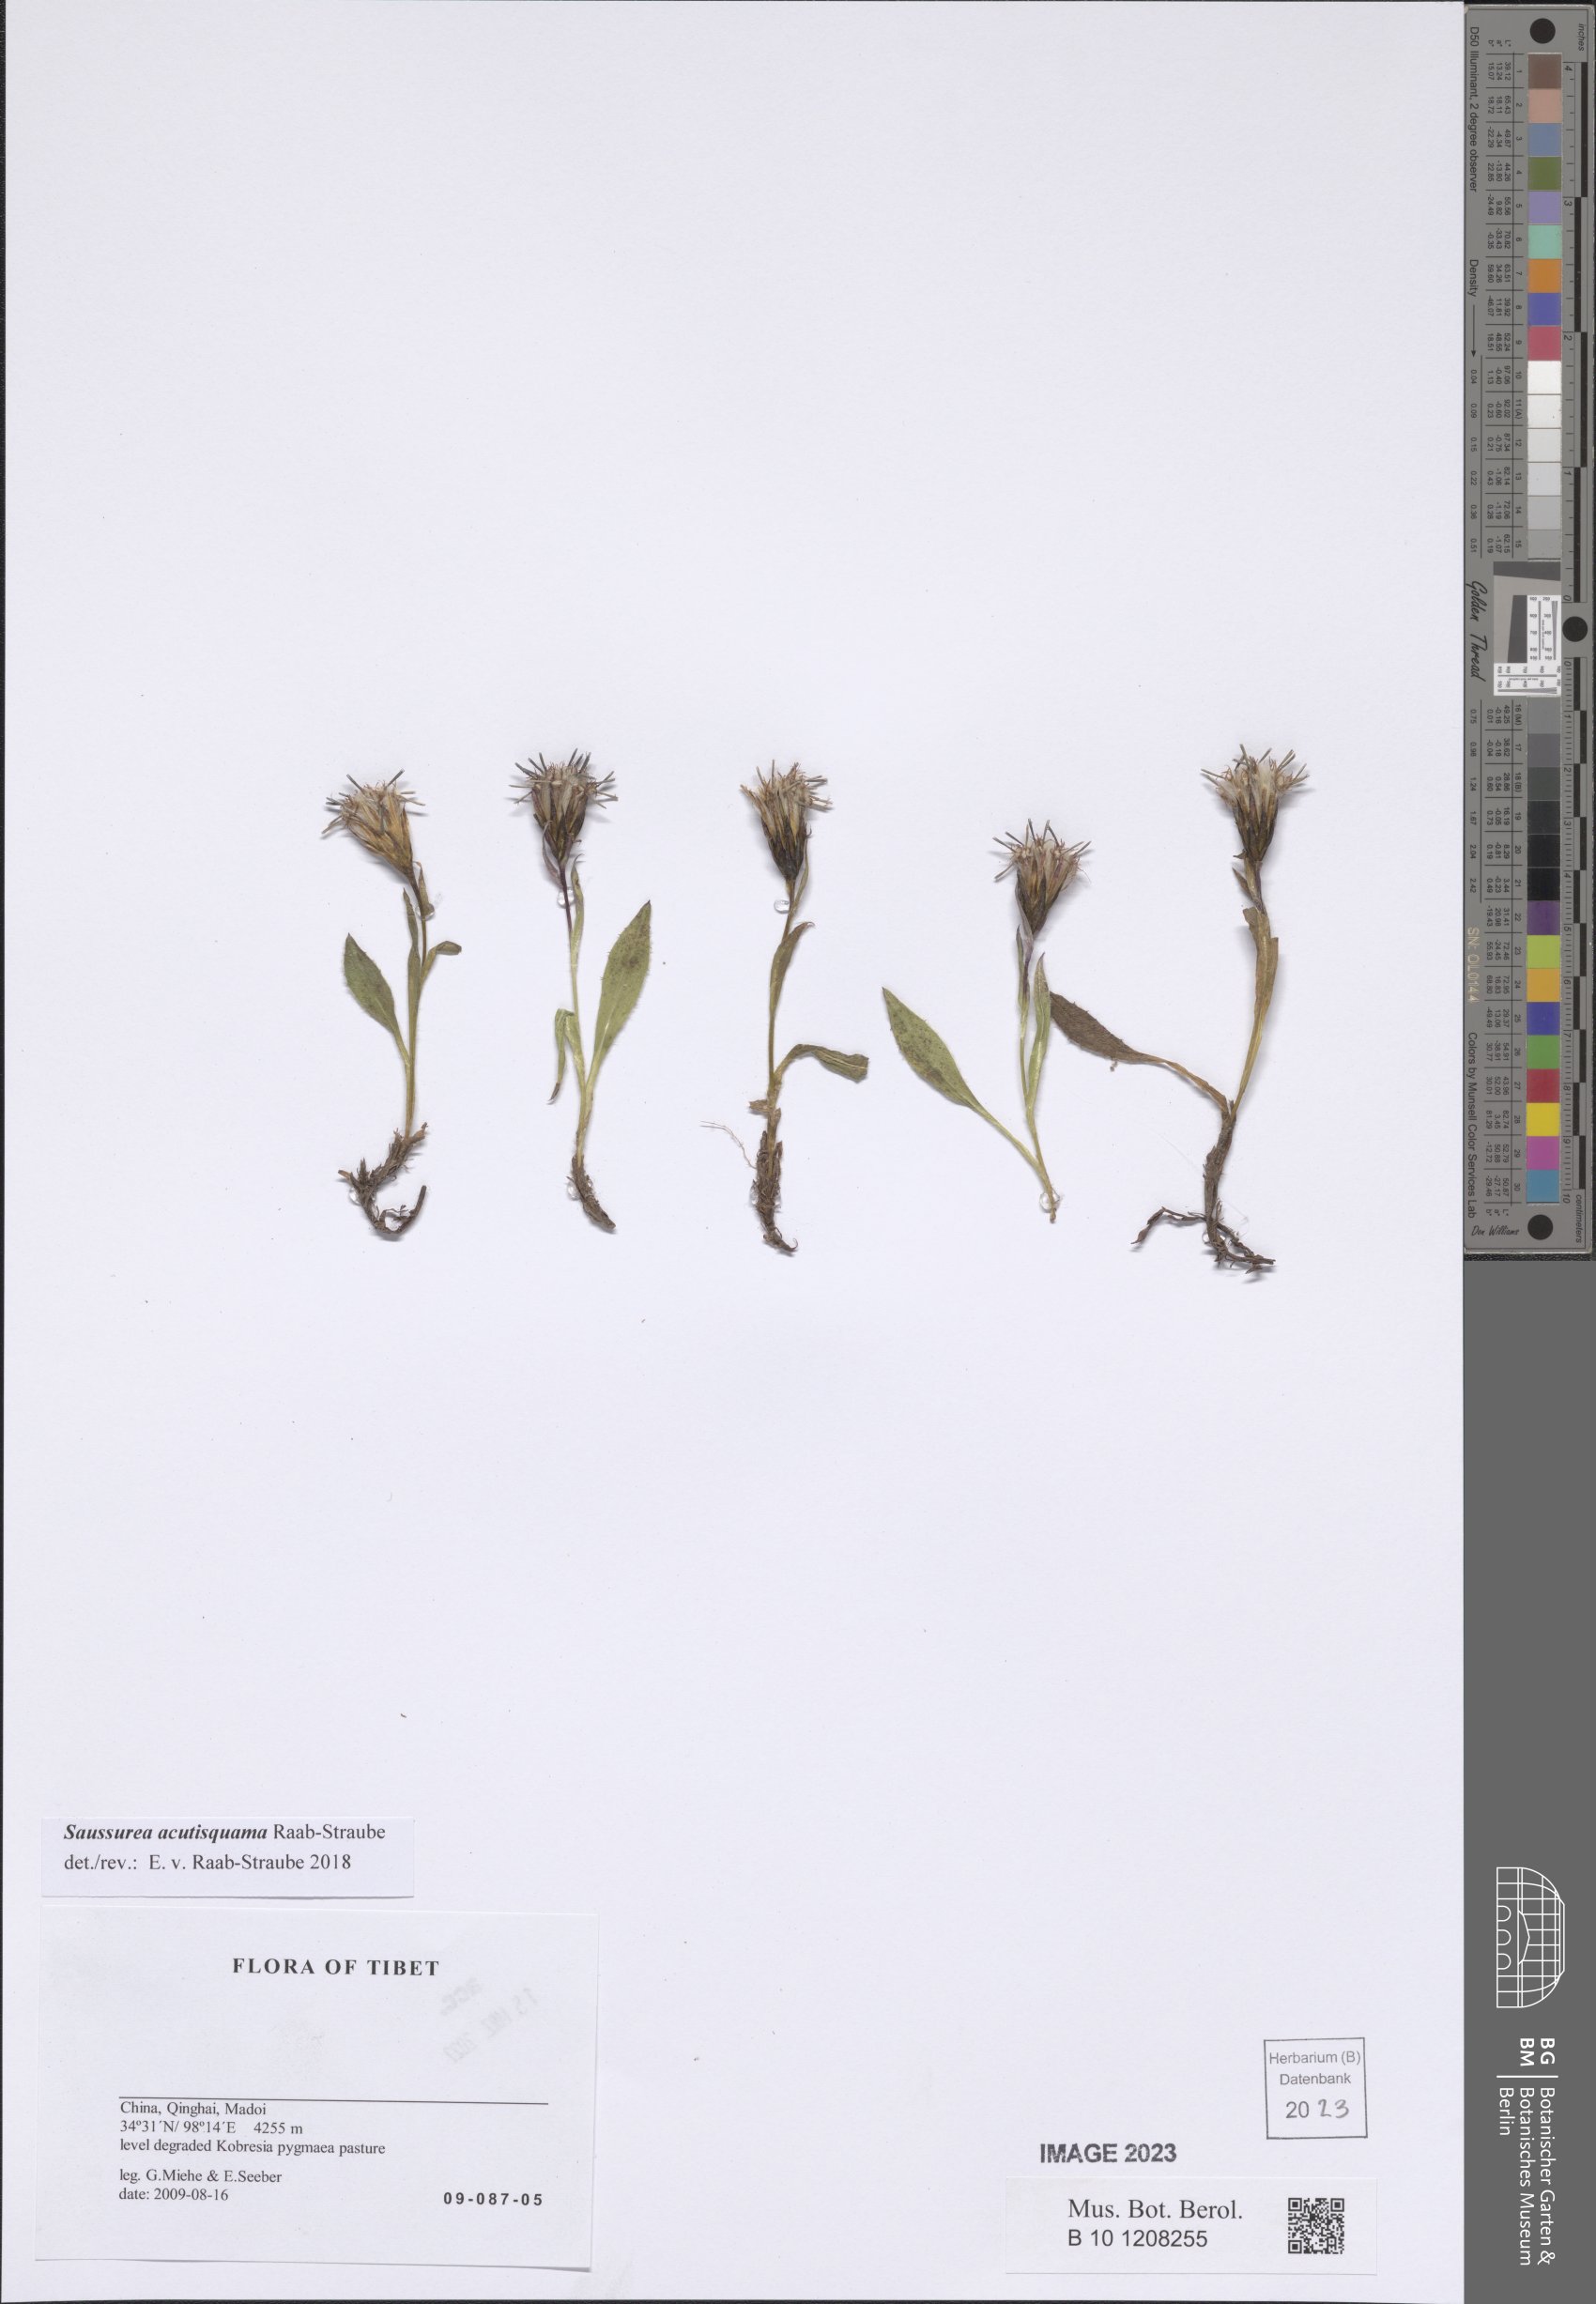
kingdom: Plantae
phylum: Tracheophyta
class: Magnoliopsida
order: Asterales
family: Asteraceae
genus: Saussurea
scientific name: Saussurea acutisquama
